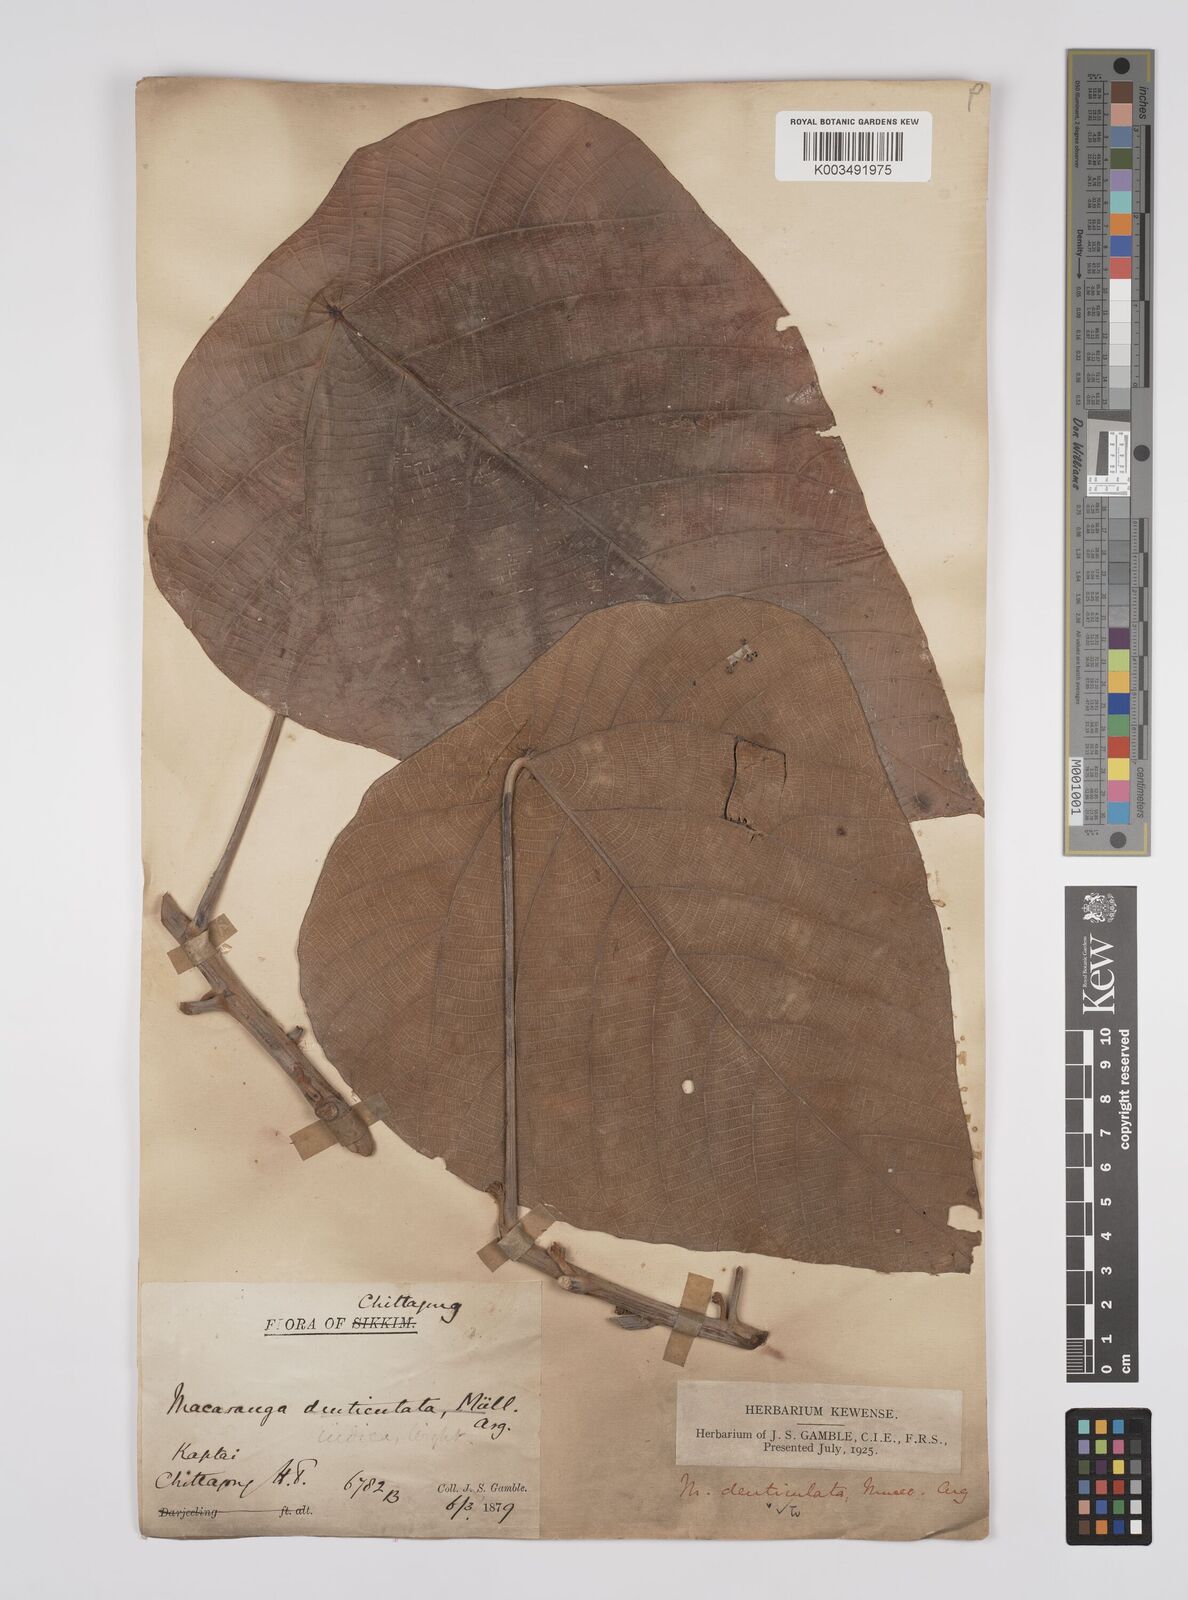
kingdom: Plantae
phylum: Tracheophyta
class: Magnoliopsida
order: Malpighiales
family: Euphorbiaceae
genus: Macaranga
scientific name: Macaranga
